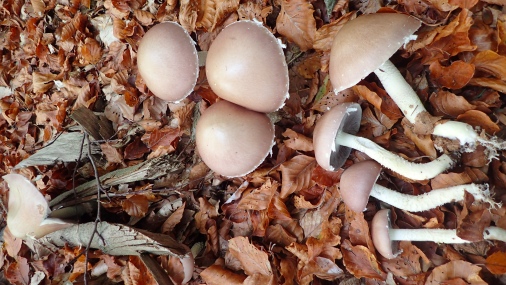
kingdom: Fungi
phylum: Basidiomycota
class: Agaricomycetes
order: Agaricales
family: Strophariaceae
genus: Stropharia
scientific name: Stropharia hornemannii
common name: nordisk bredblad
